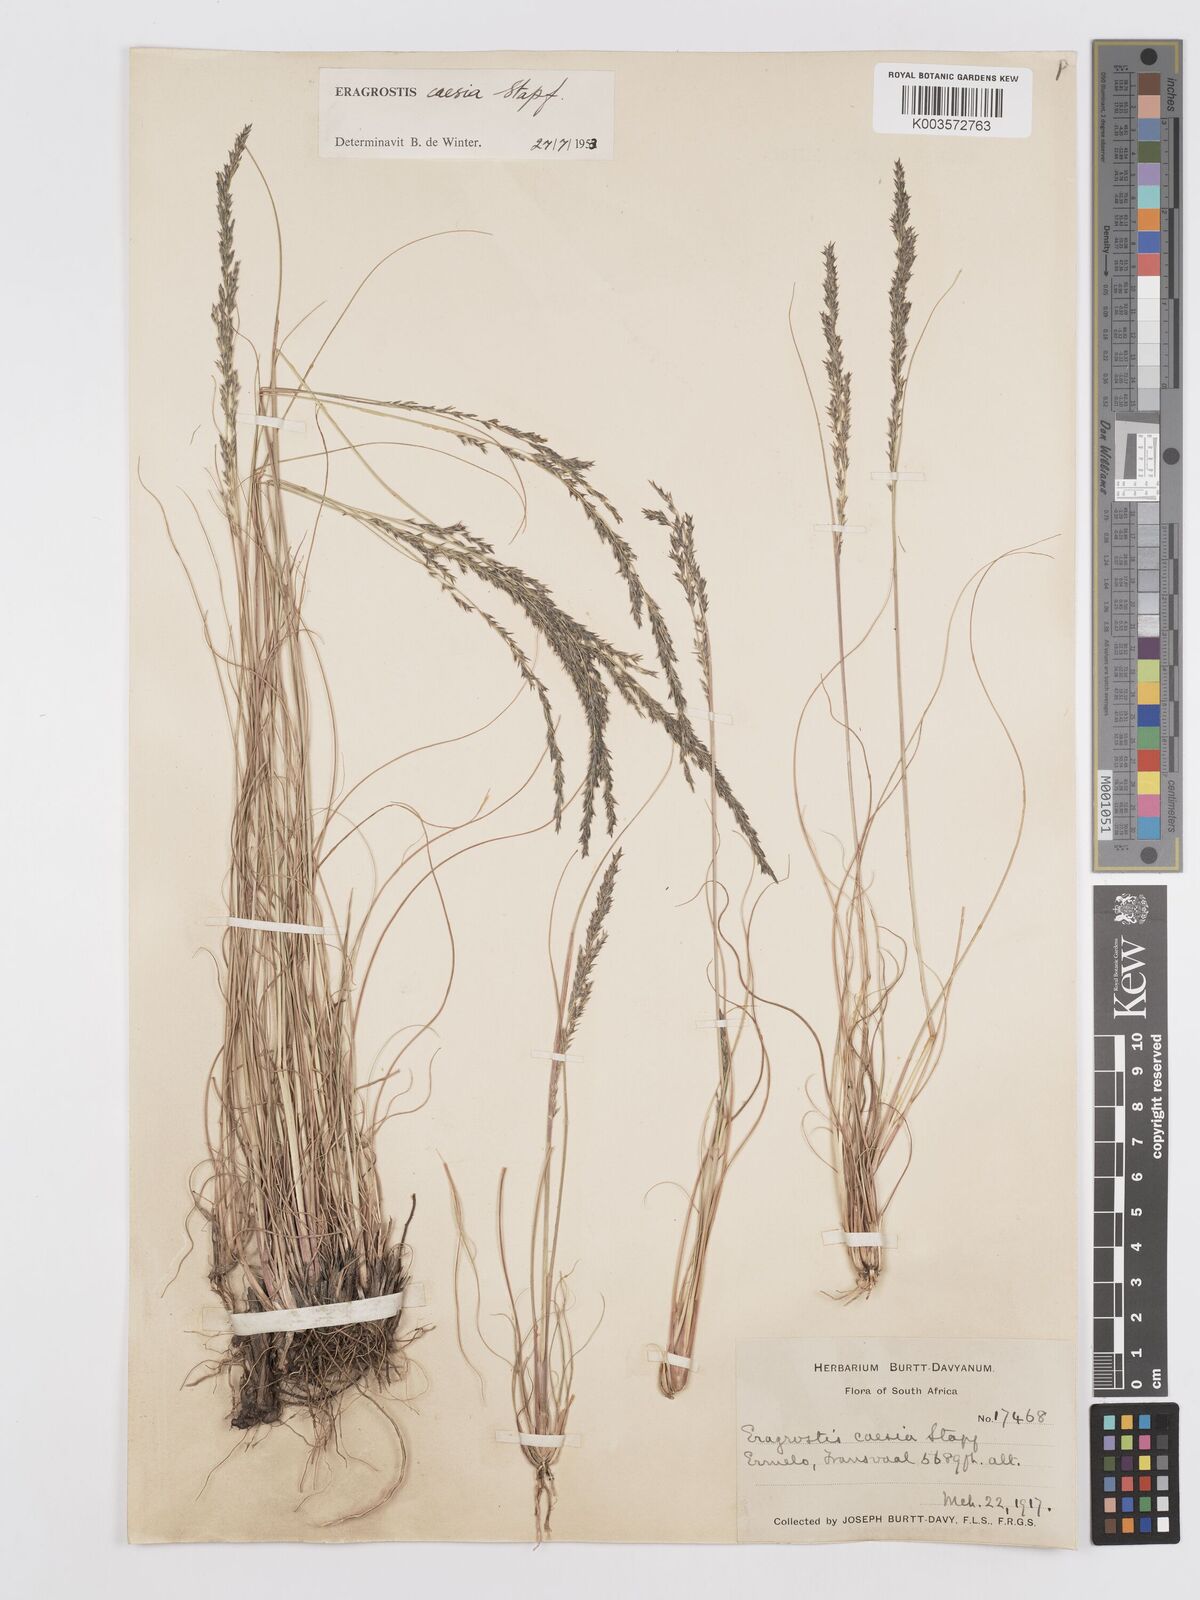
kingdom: Plantae
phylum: Tracheophyta
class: Liliopsida
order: Poales
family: Poaceae
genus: Eragrostis
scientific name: Eragrostis caesia
